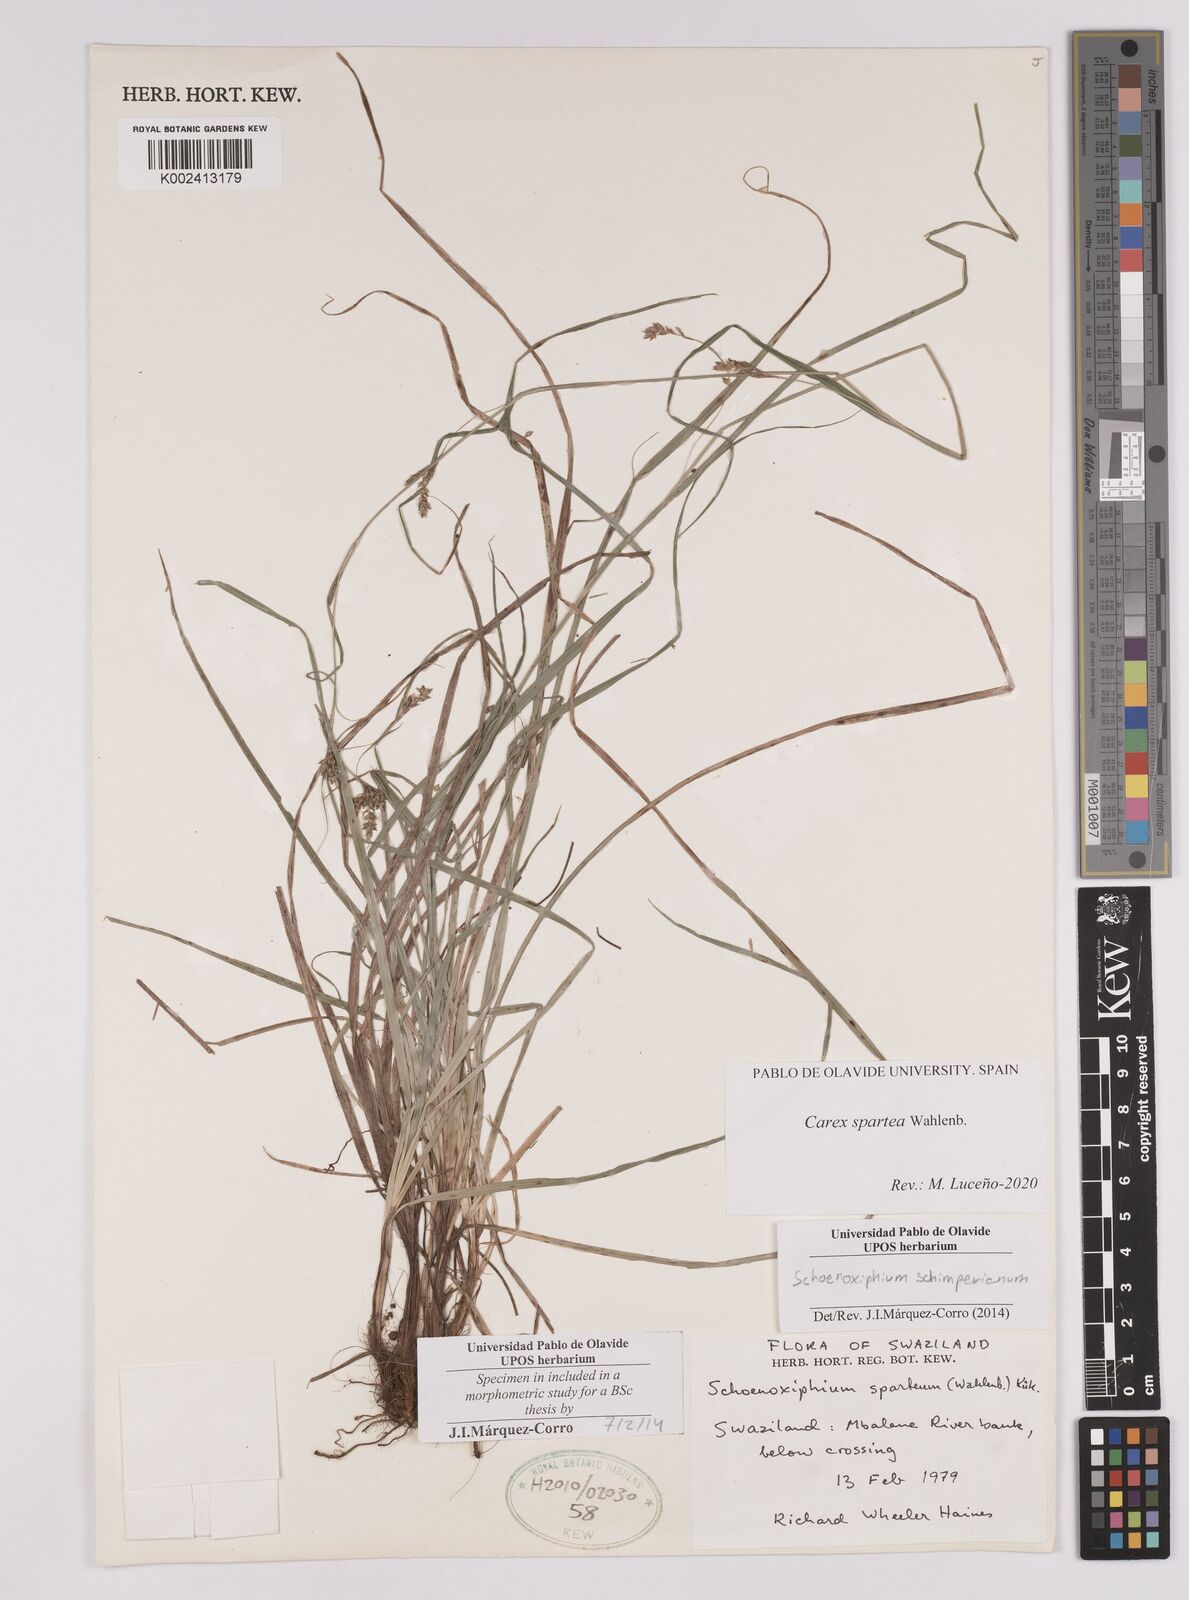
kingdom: Plantae
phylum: Tracheophyta
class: Liliopsida
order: Poales
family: Cyperaceae
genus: Carex
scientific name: Carex spartea
